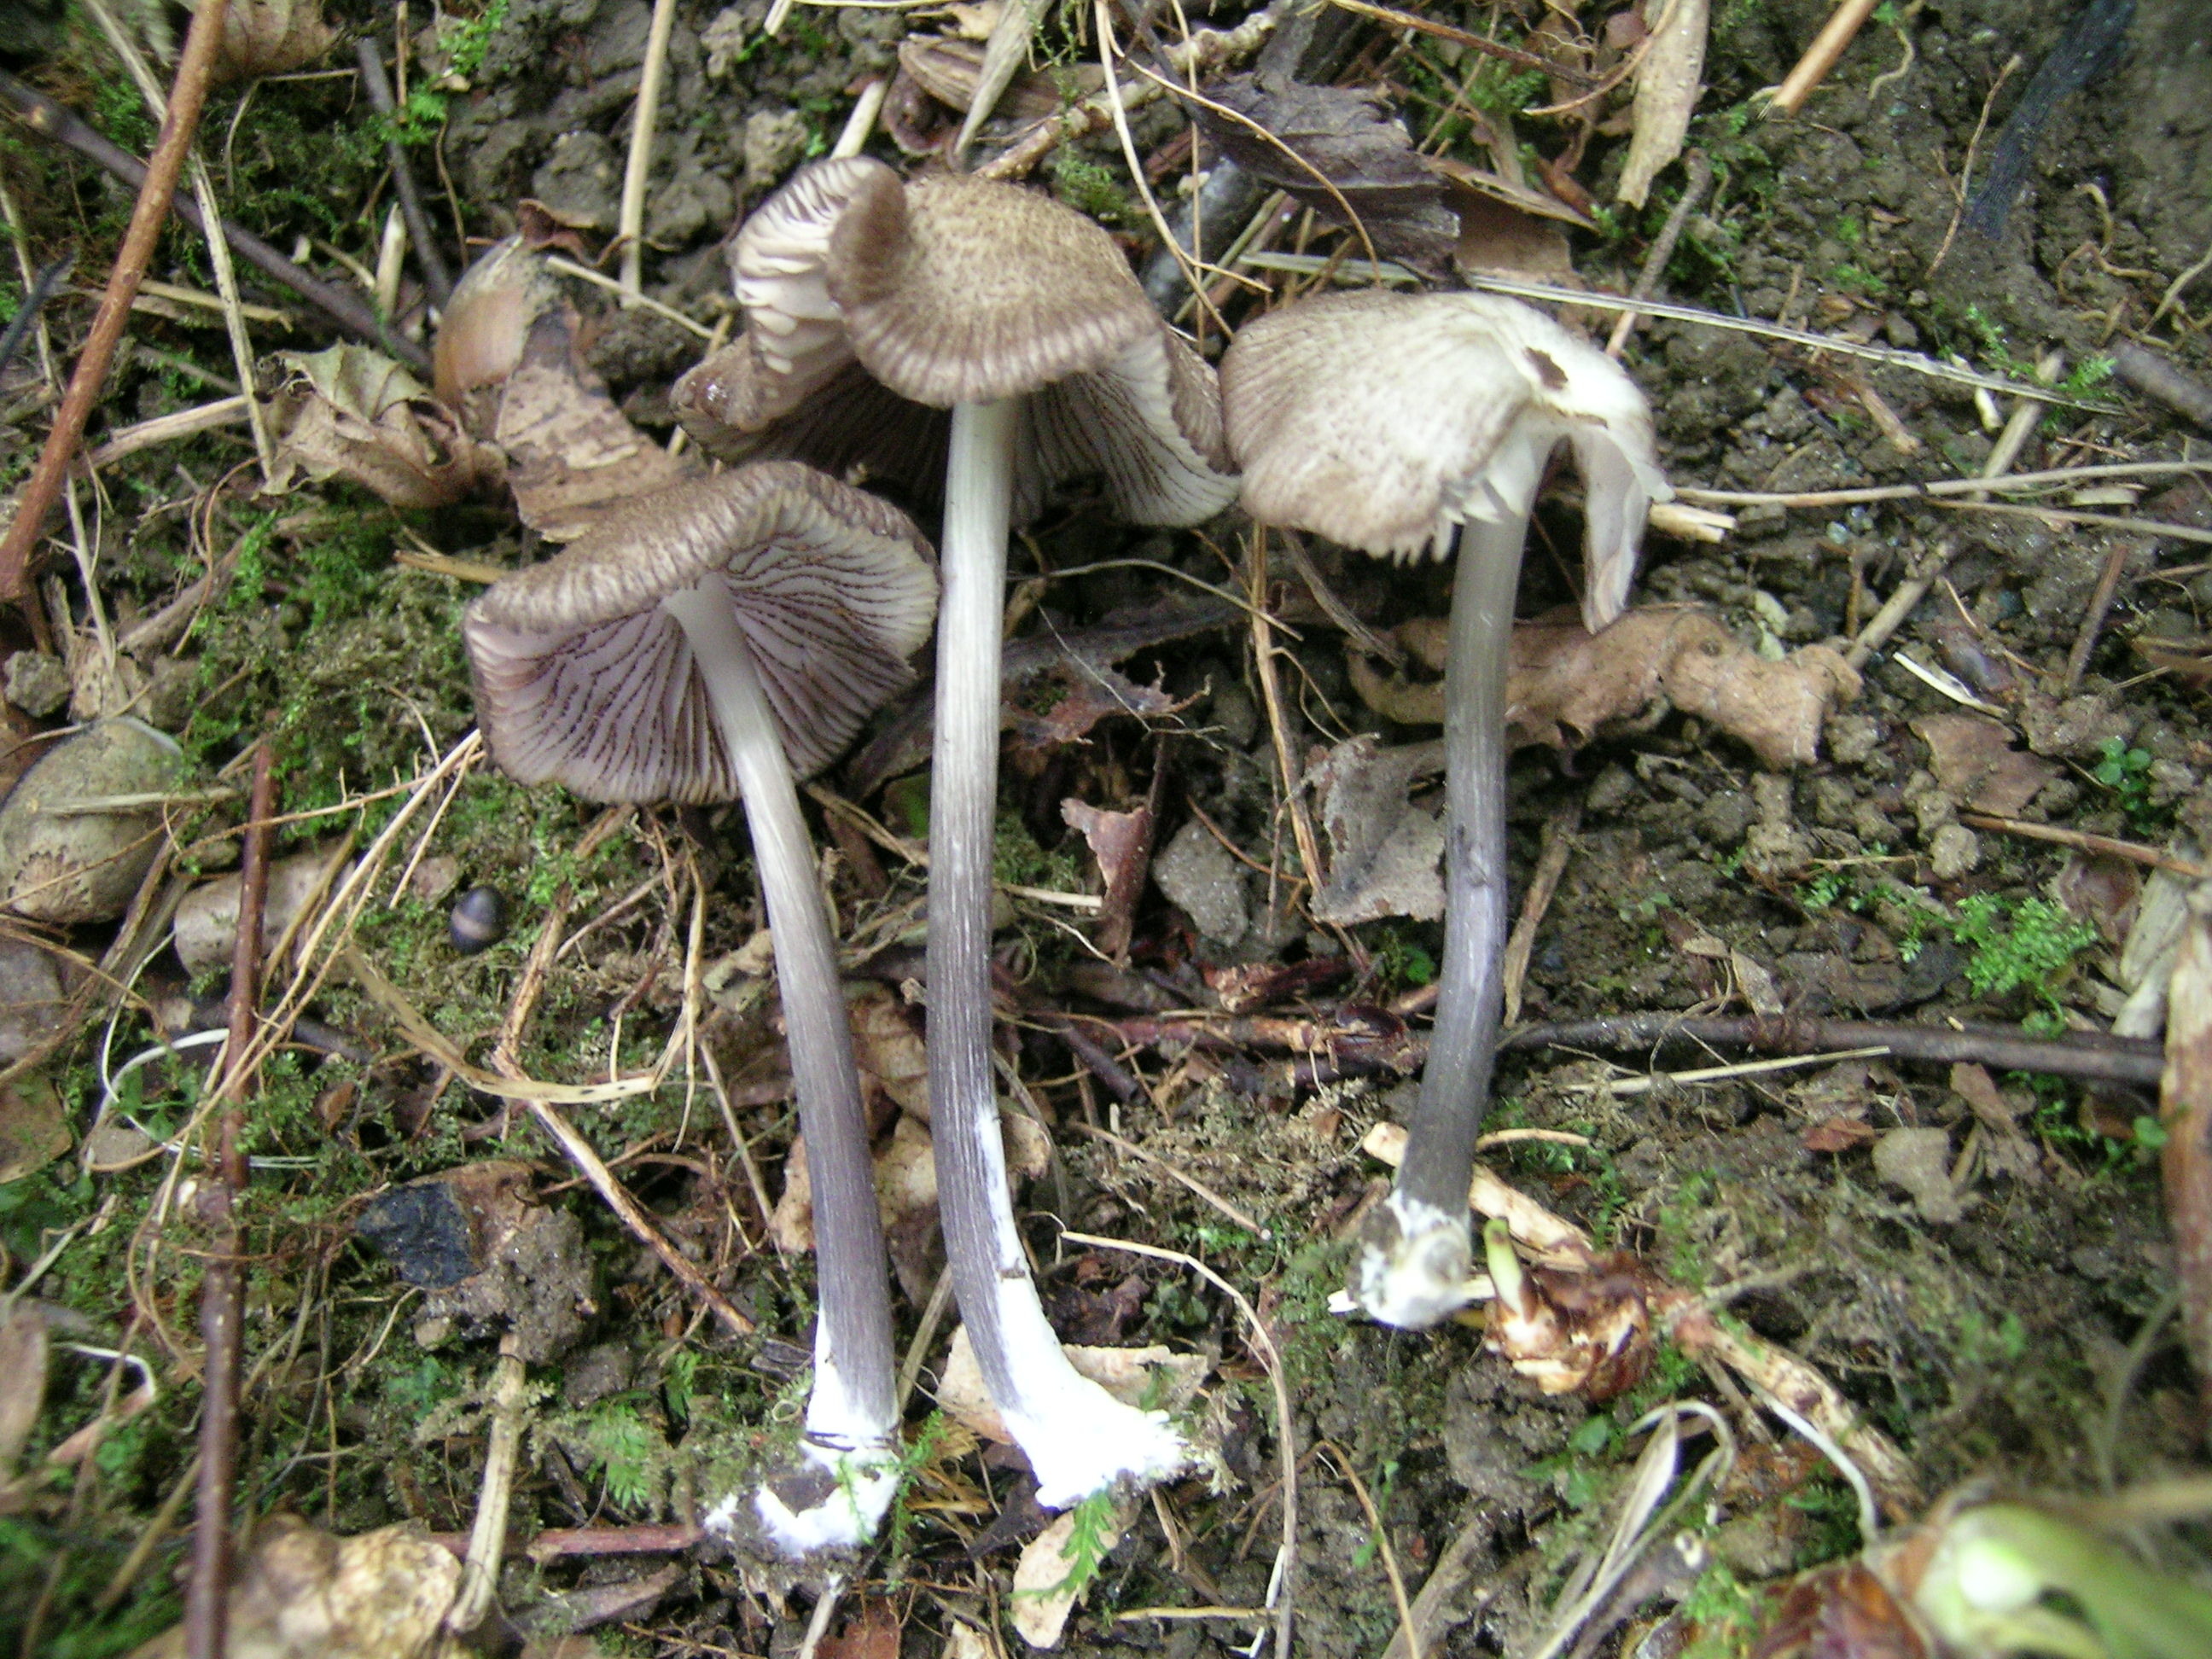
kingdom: Fungi
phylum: Basidiomycota
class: Agaricomycetes
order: Agaricales
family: Entolomataceae
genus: Entoloma
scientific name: Entoloma carneogriseum
